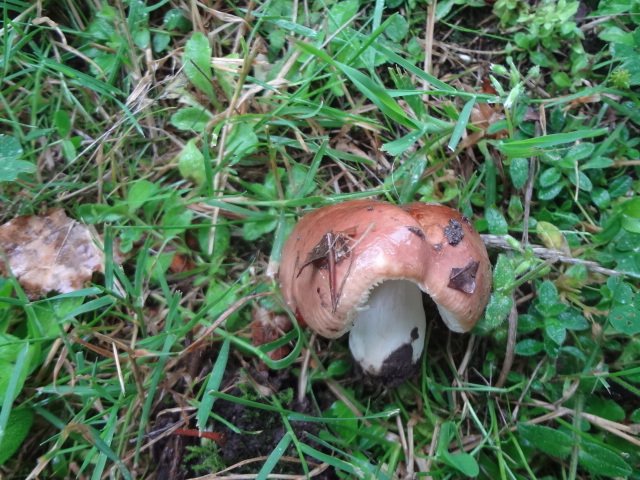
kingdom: Fungi
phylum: Basidiomycota
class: Agaricomycetes
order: Russulales
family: Russulaceae
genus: Russula
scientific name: Russula graveolens
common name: bugtet skørhat
